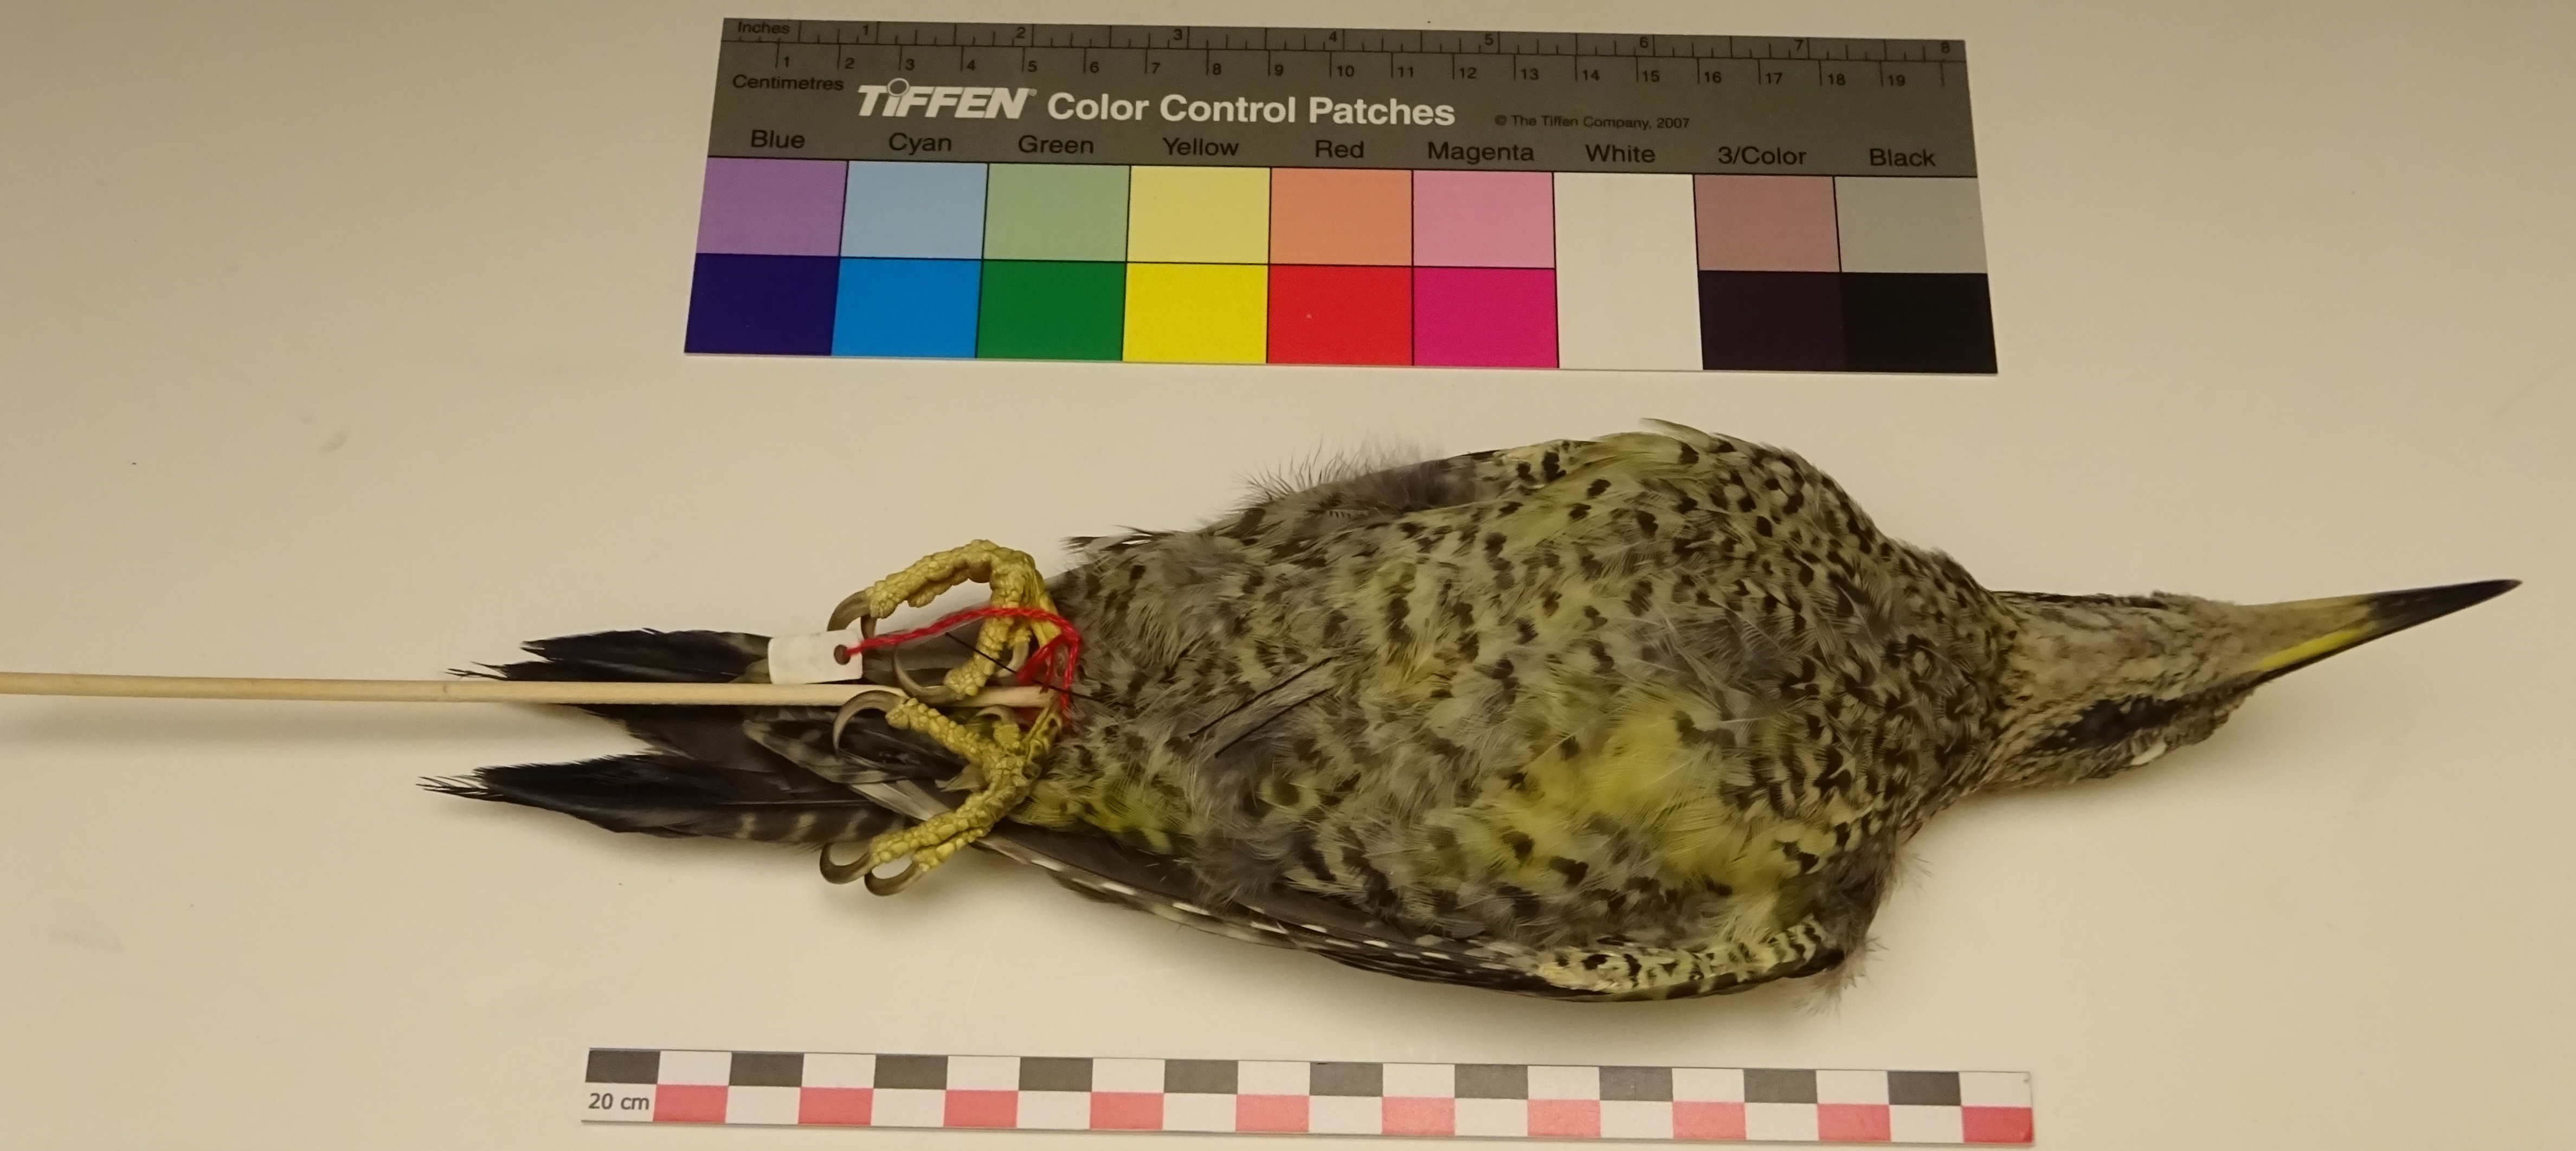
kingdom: Animalia
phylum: Chordata
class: Aves
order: Piciformes
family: Picidae
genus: Picus
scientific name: Picus viridis
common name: European green woodpecker
